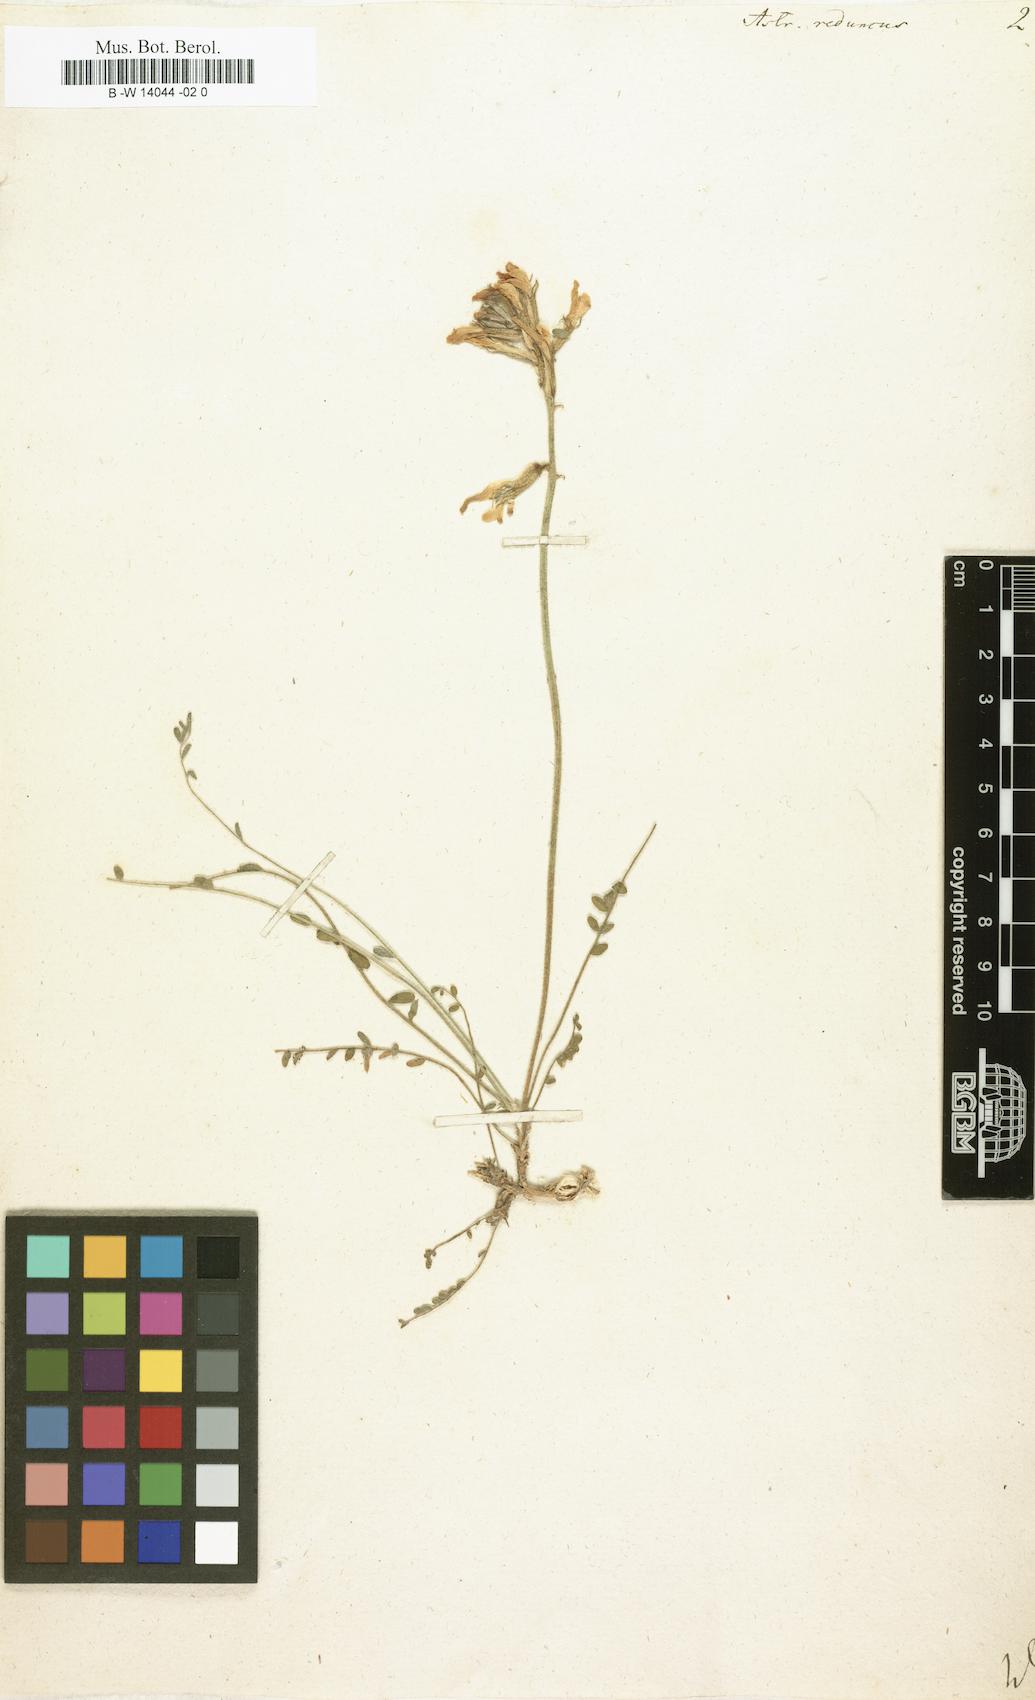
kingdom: Plantae
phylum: Tracheophyta
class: Magnoliopsida
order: Fabales
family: Fabaceae
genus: Astragalus
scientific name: Astragalus reduncus
